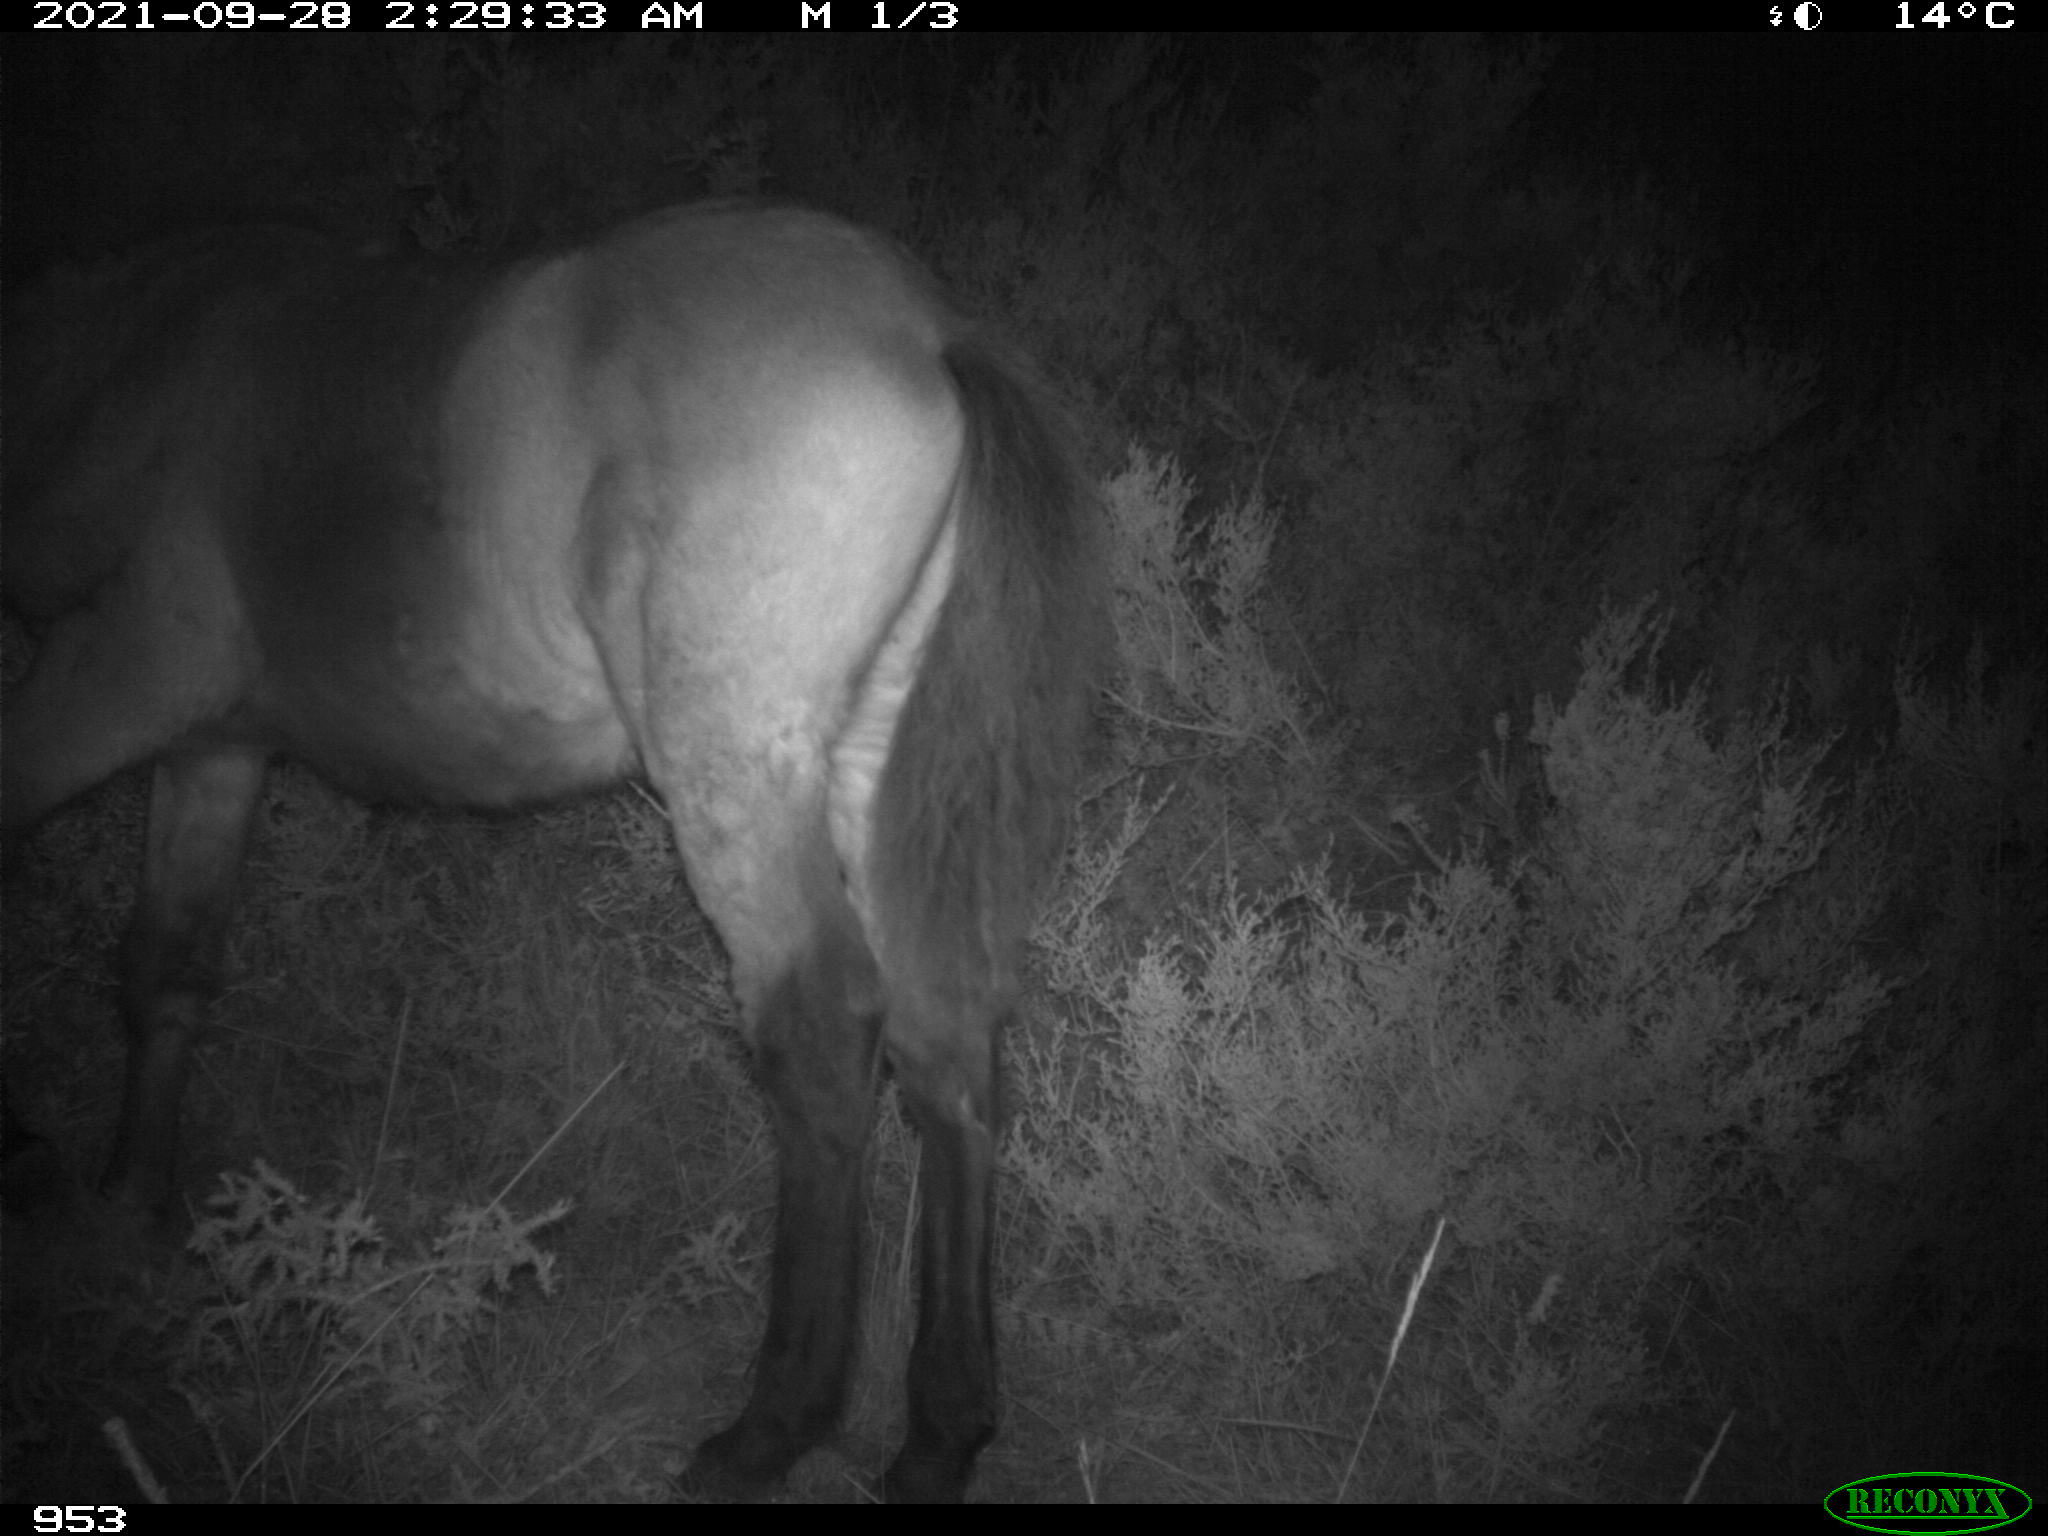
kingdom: Animalia
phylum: Chordata
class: Mammalia
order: Perissodactyla
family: Equidae
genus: Equus
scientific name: Equus caballus
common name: Horse
